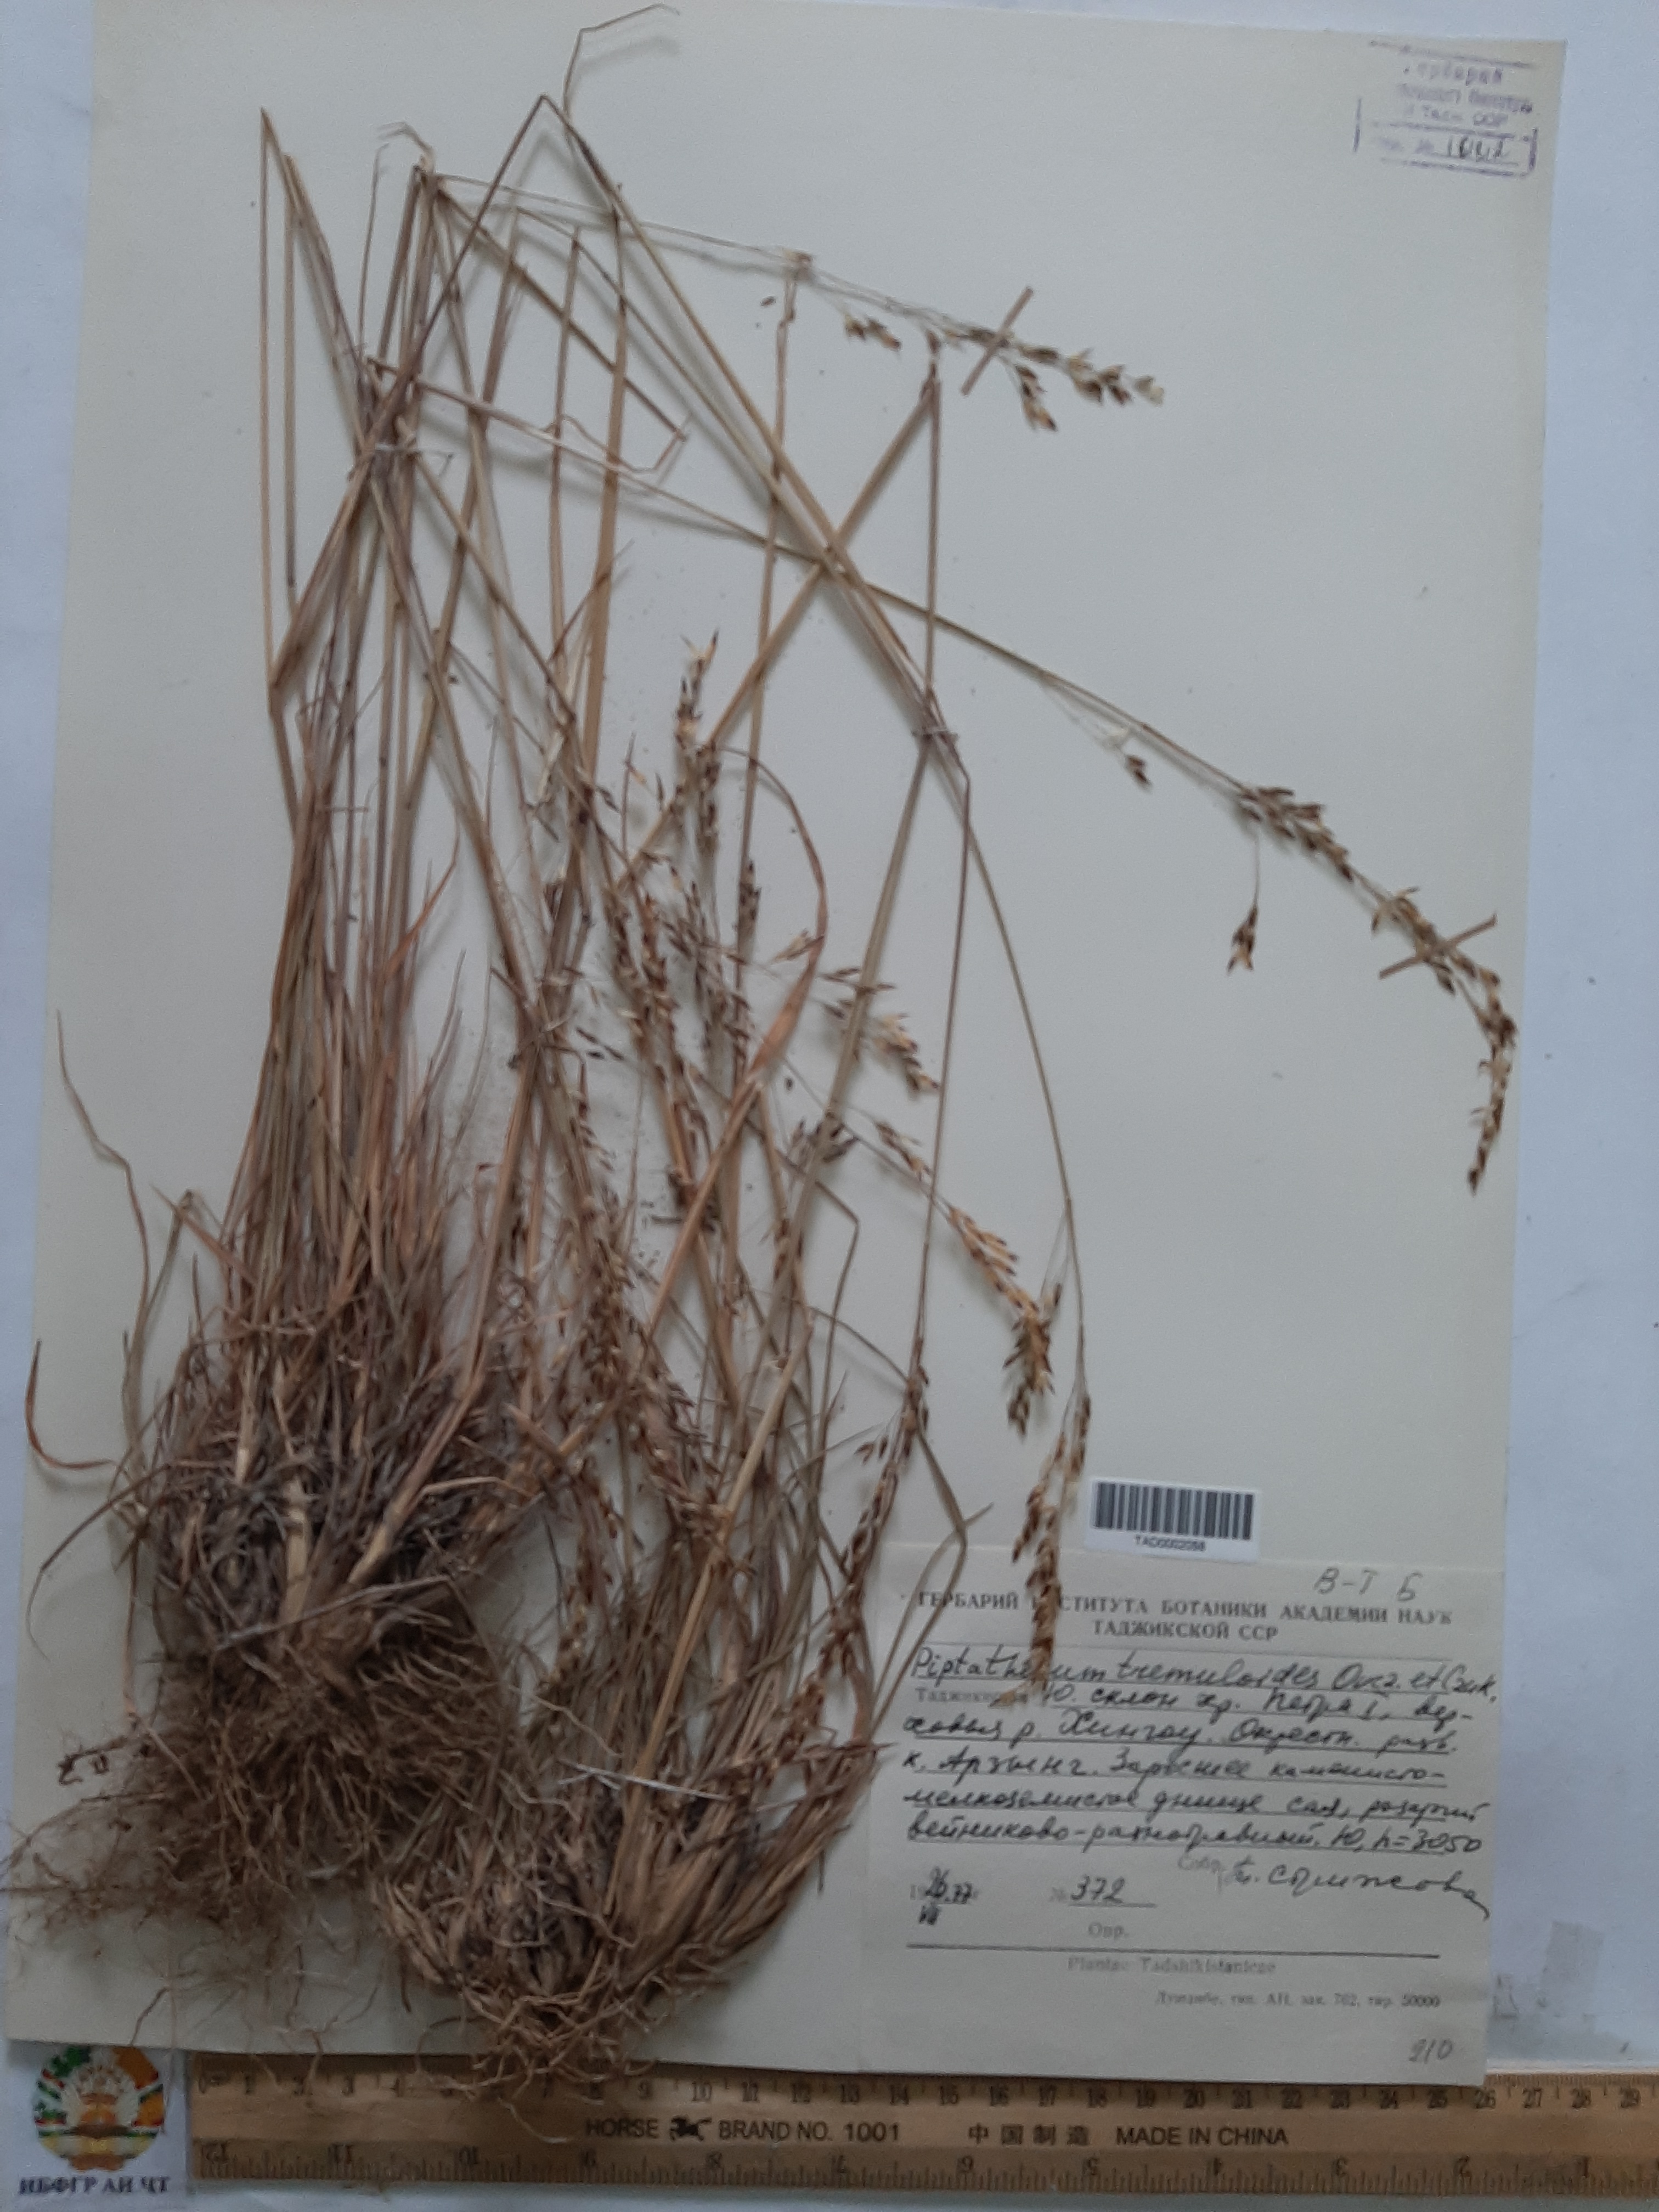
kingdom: Plantae
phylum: Tracheophyta
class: Liliopsida
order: Poales
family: Poaceae
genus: Piptatherum
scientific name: Piptatherum hilariae
